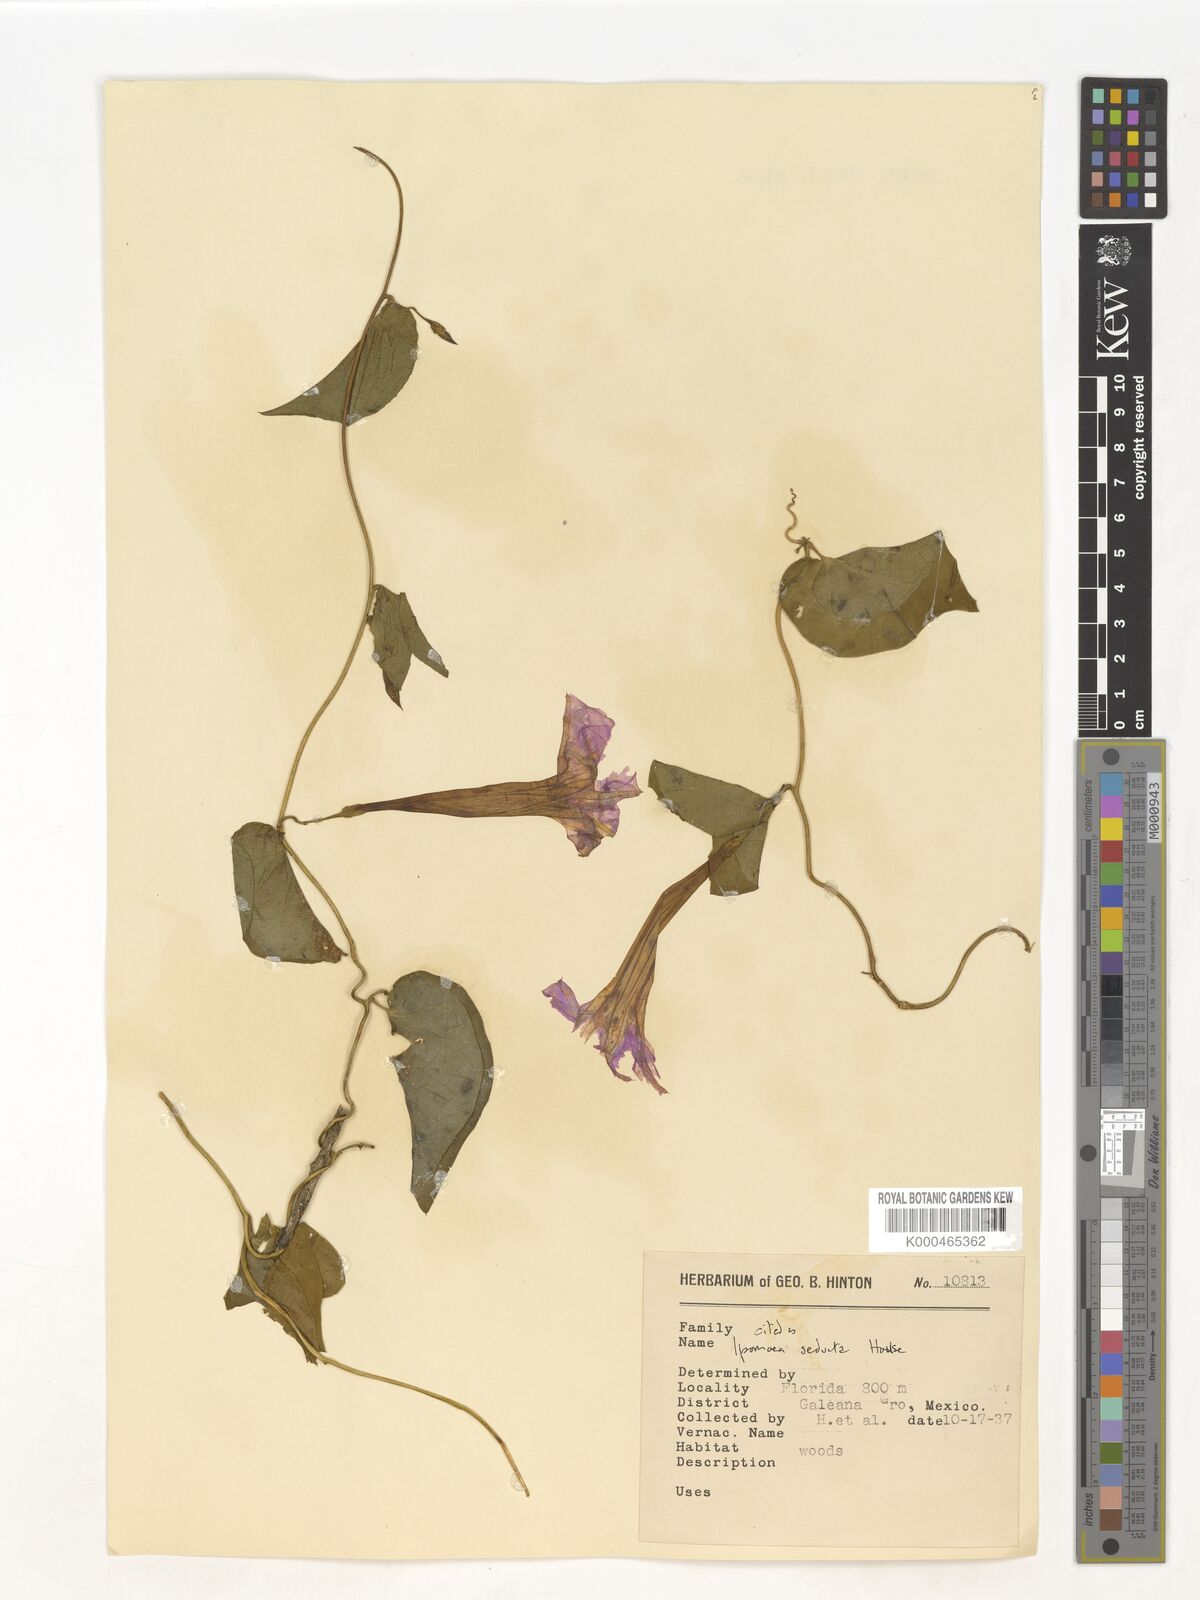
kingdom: Plantae
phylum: Tracheophyta
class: Magnoliopsida
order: Solanales
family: Convolvulaceae
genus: Ipomoea
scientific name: Ipomoea seducta
